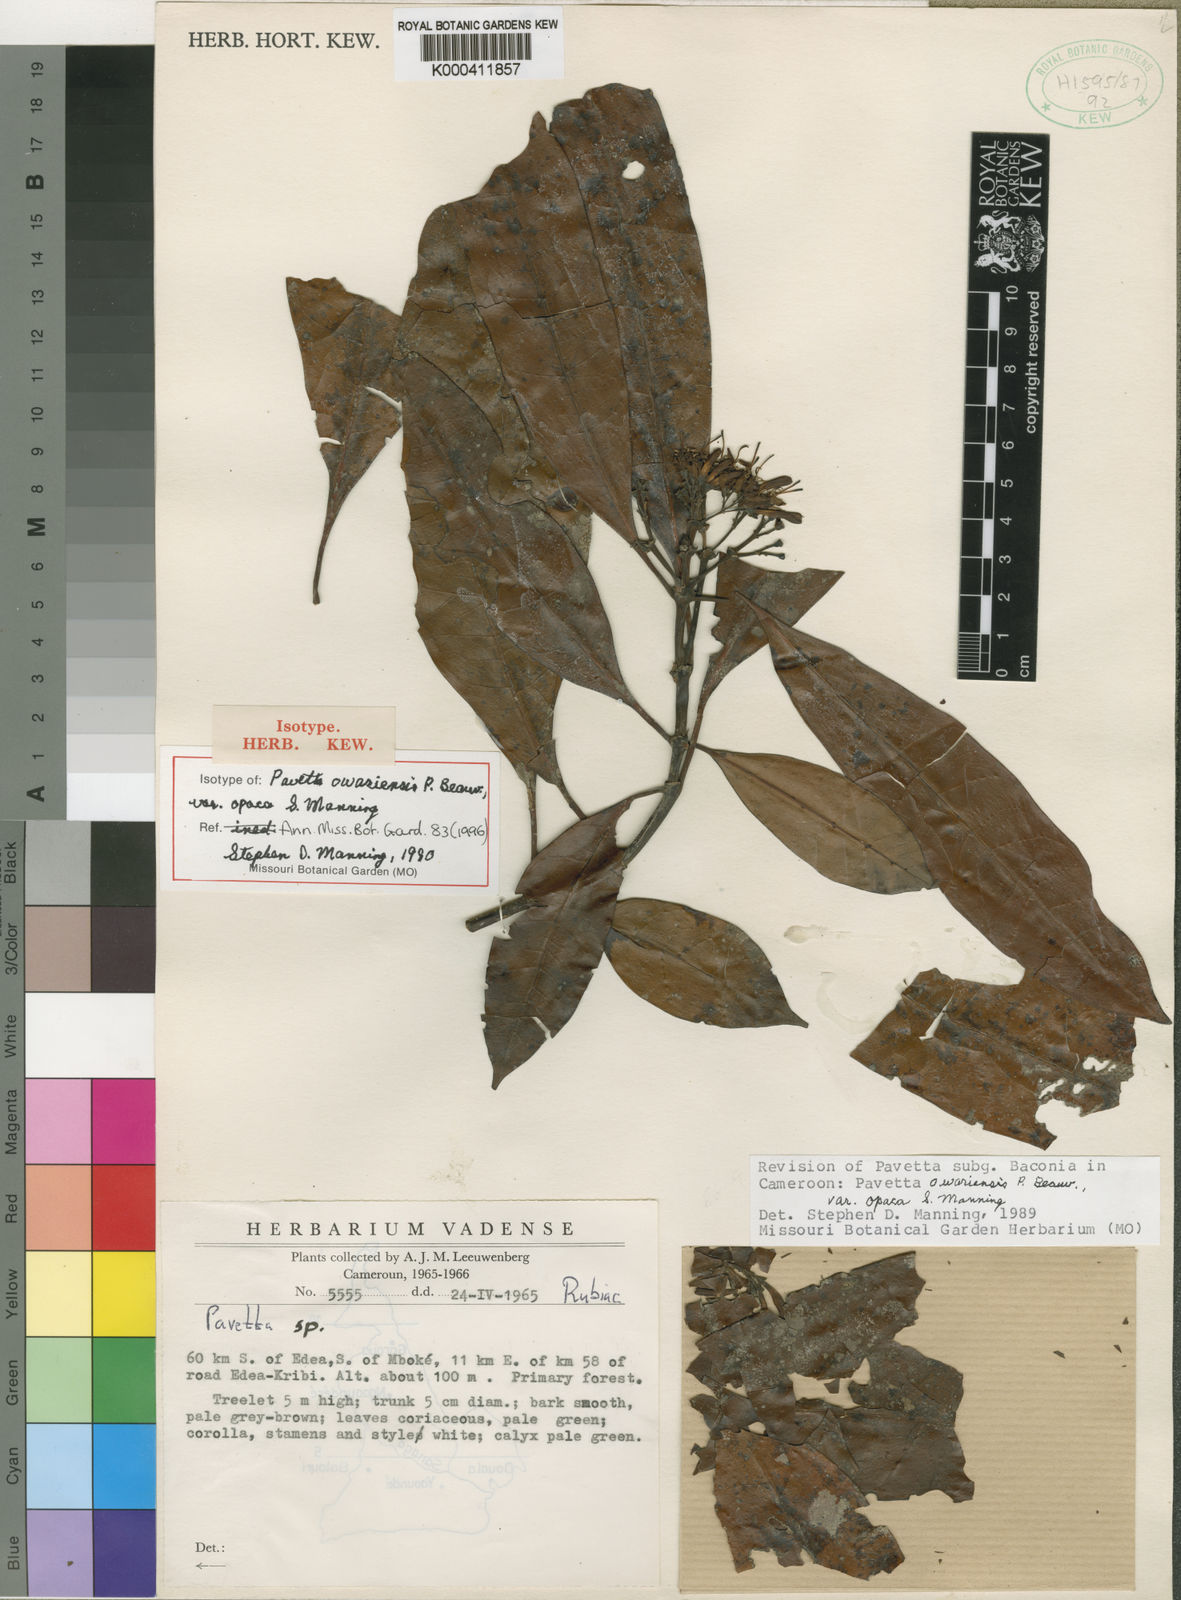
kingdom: Plantae
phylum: Tracheophyta
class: Magnoliopsida
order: Gentianales
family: Rubiaceae
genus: Pavetta
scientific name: Pavetta owariensis
